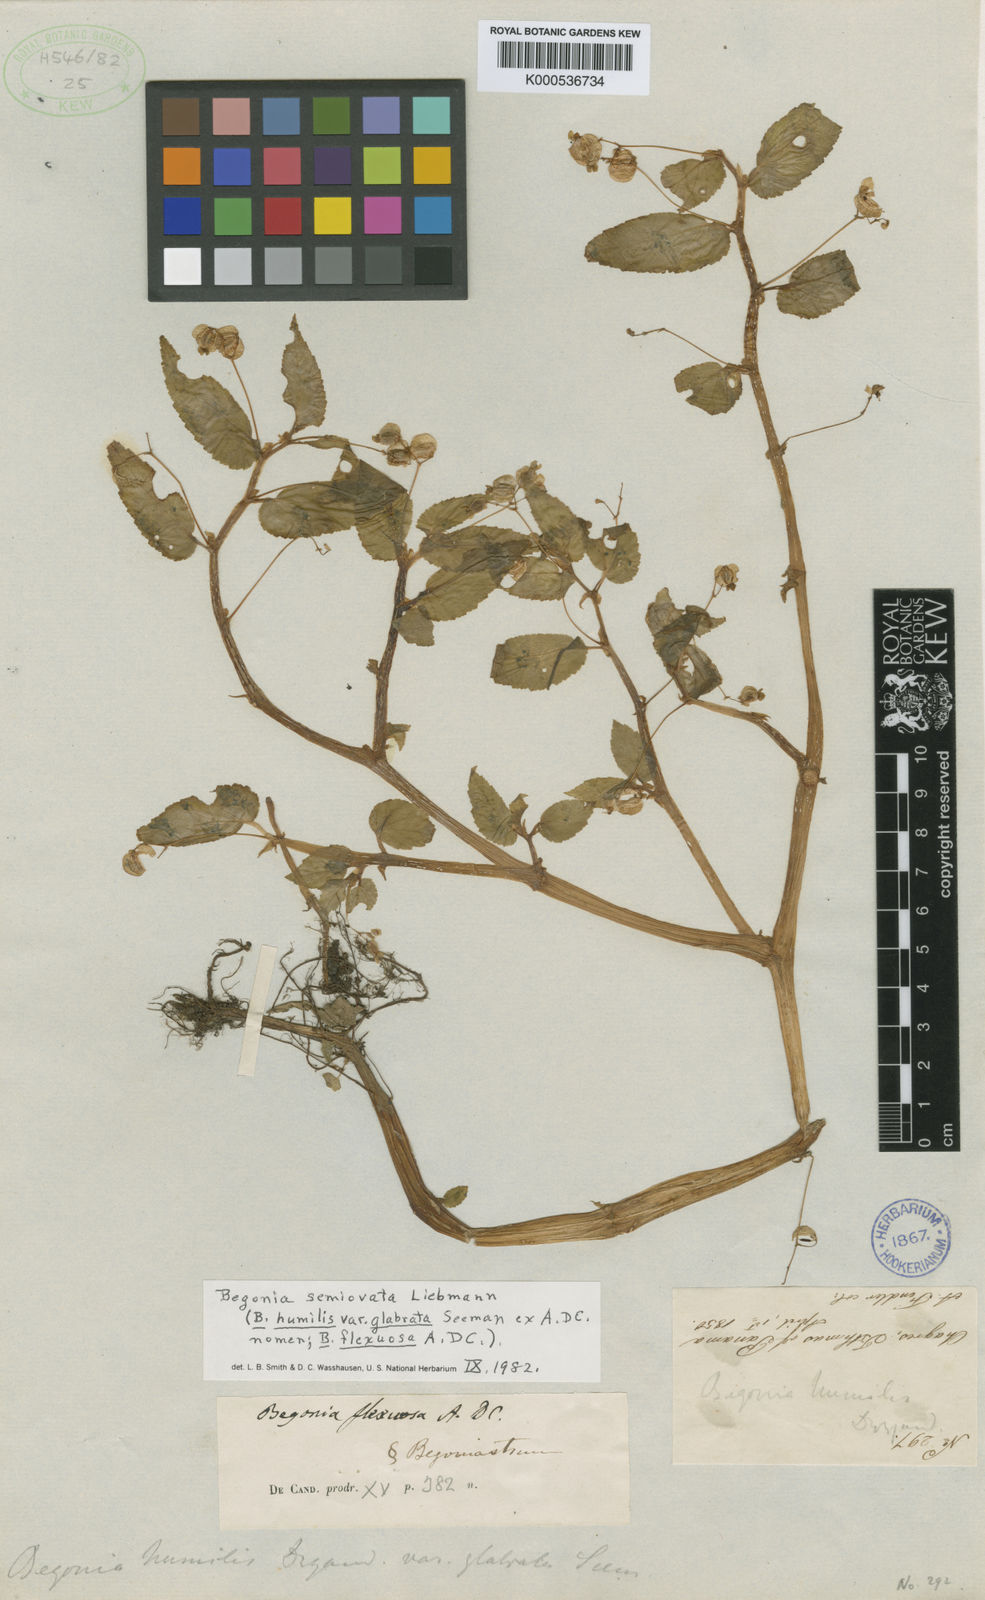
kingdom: Plantae
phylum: Tracheophyta
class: Magnoliopsida
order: Cucurbitales
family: Begoniaceae
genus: Begonia
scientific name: Begonia semiovata
